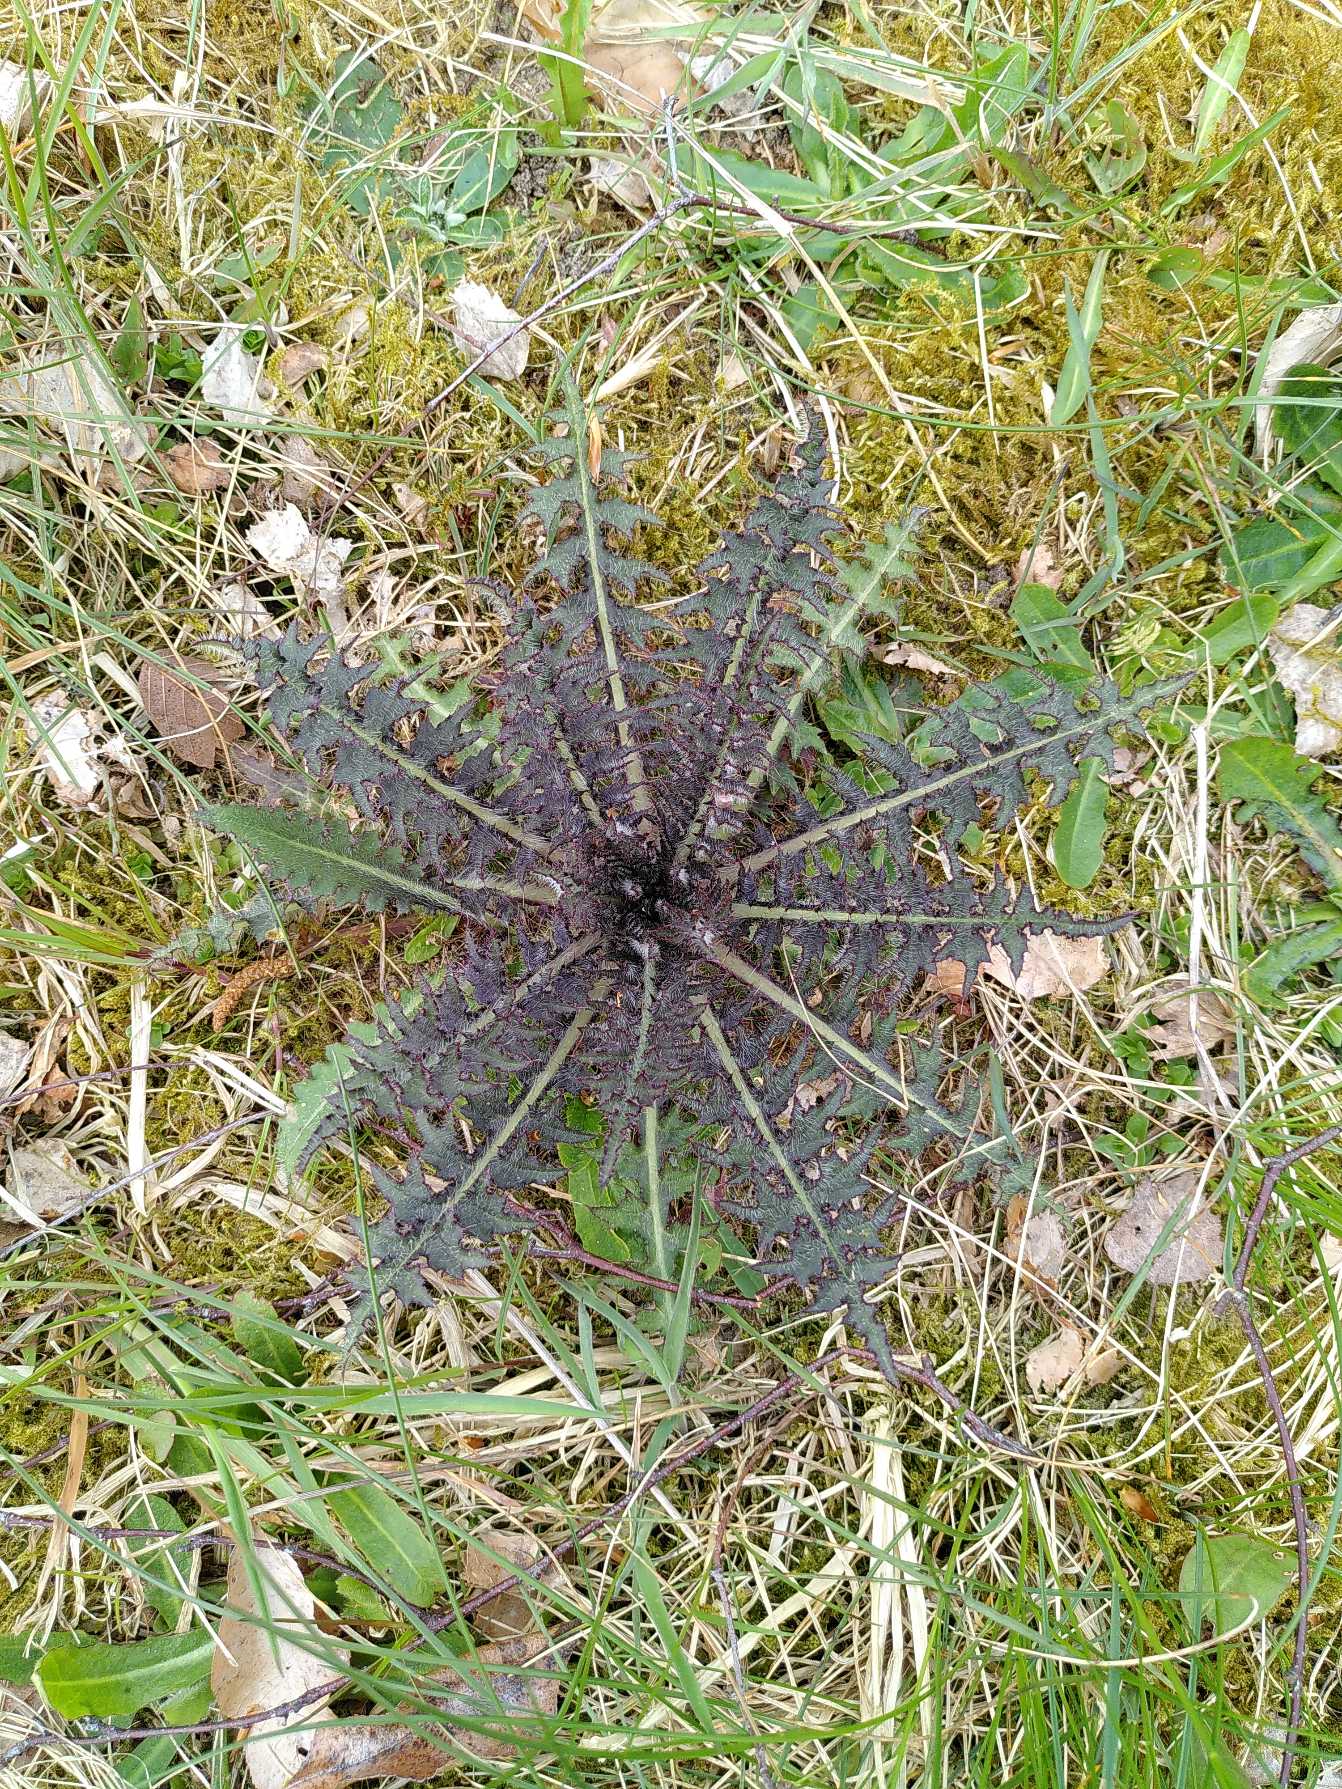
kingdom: Plantae
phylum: Tracheophyta
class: Magnoliopsida
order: Asterales
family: Asteraceae
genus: Cirsium
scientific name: Cirsium palustre
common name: Kær-tidsel
